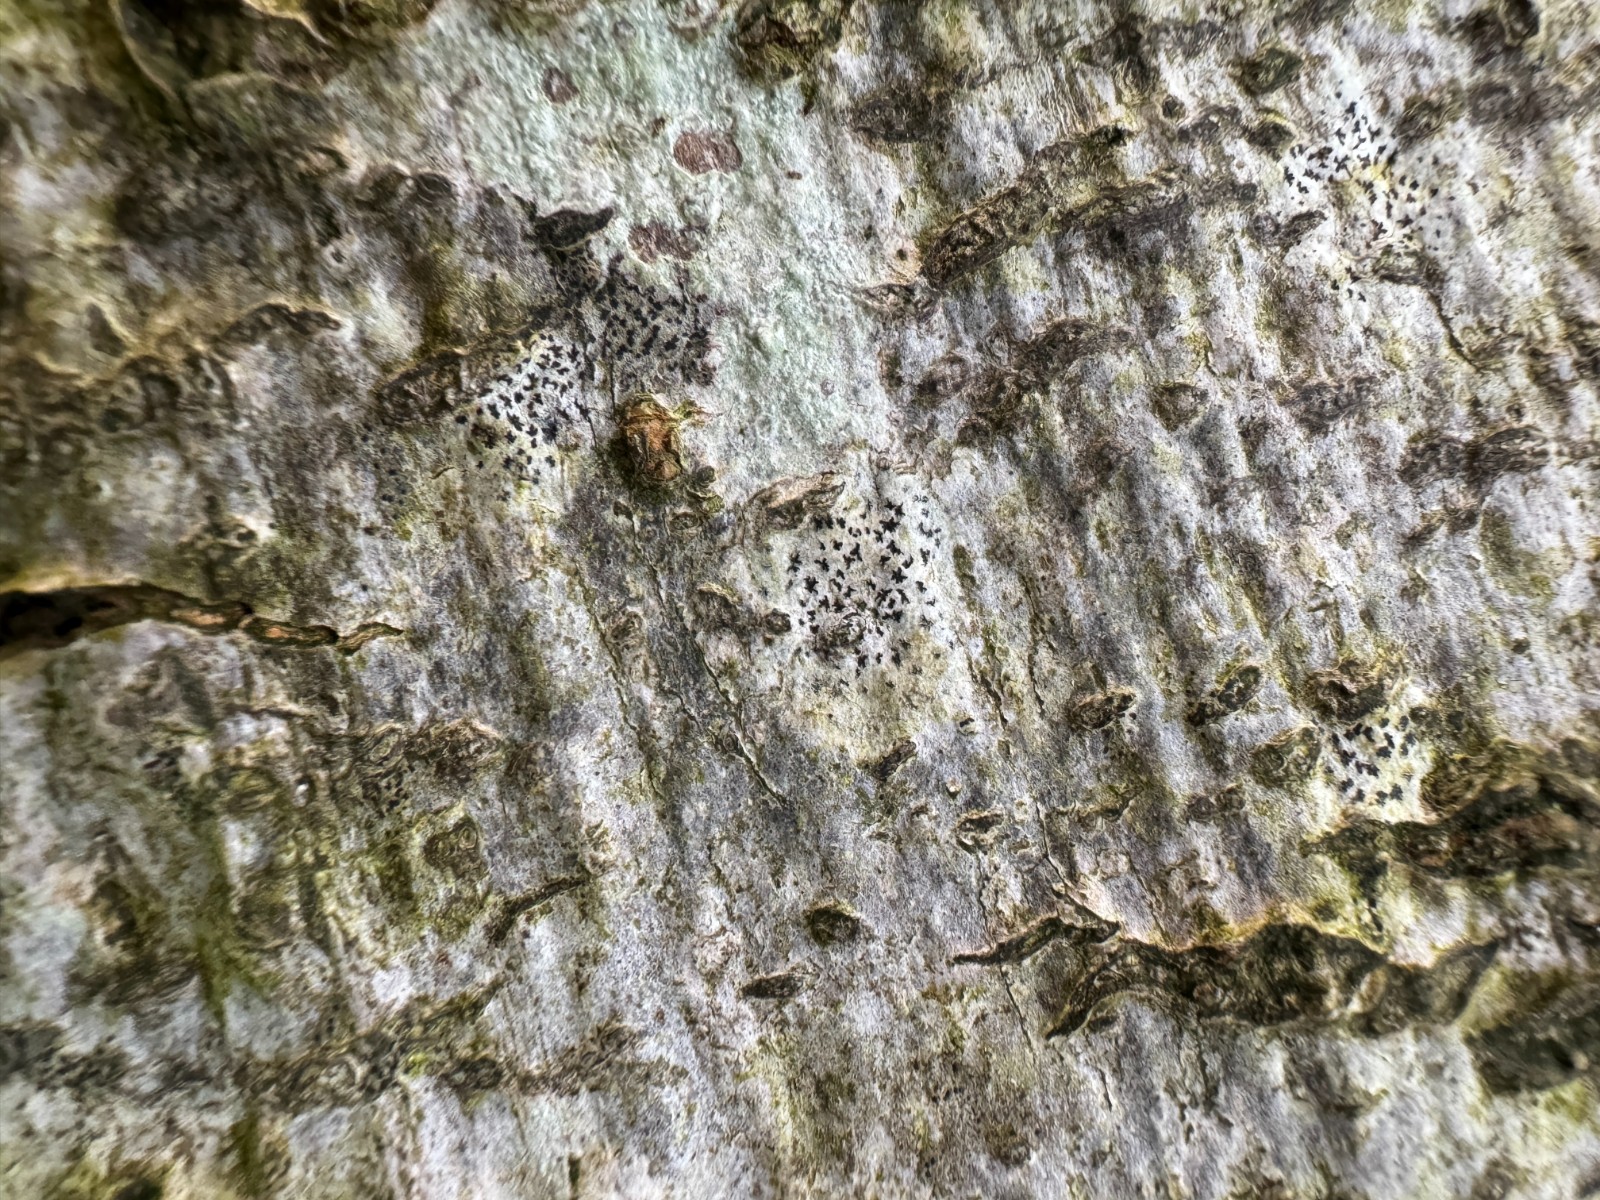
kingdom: Fungi
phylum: Ascomycota
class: Arthoniomycetes
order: Arthoniales
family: Arthoniaceae
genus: Arthonia
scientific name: Arthonia
